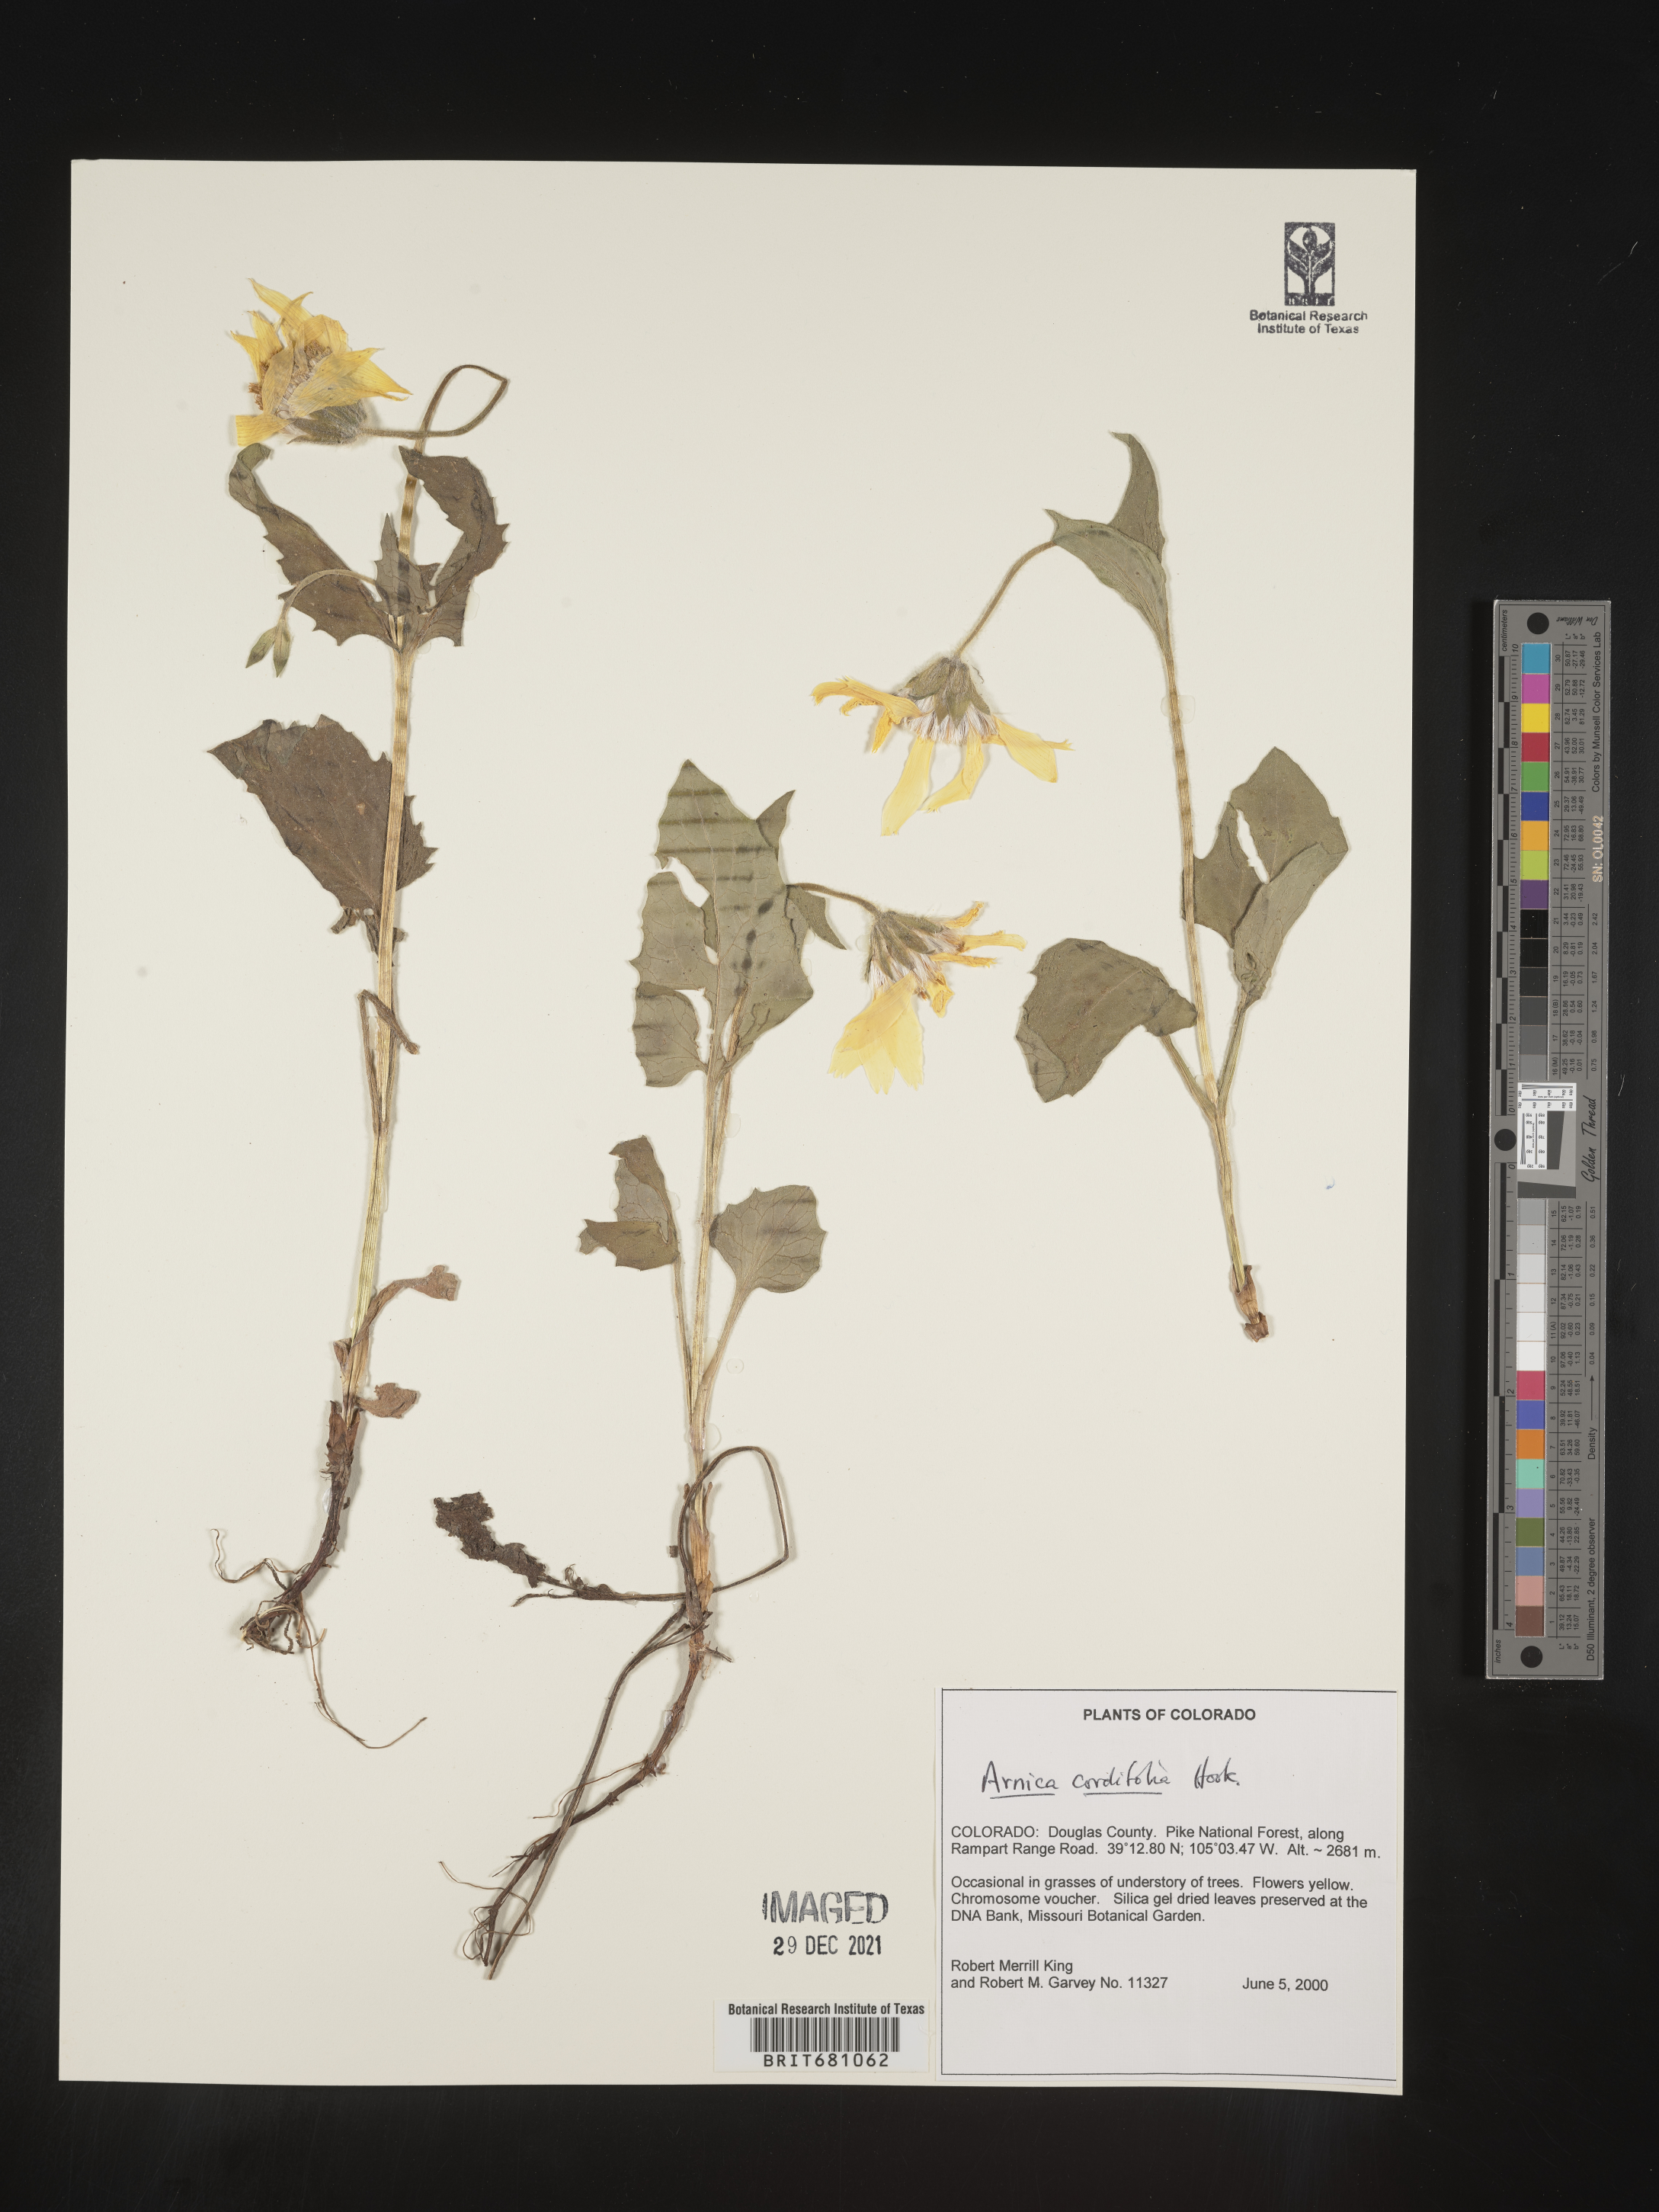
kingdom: Plantae
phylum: Tracheophyta
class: Magnoliopsida
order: Asterales
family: Asteraceae
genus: Arnica
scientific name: Arnica cordifolia
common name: Heart-leaf arnica
